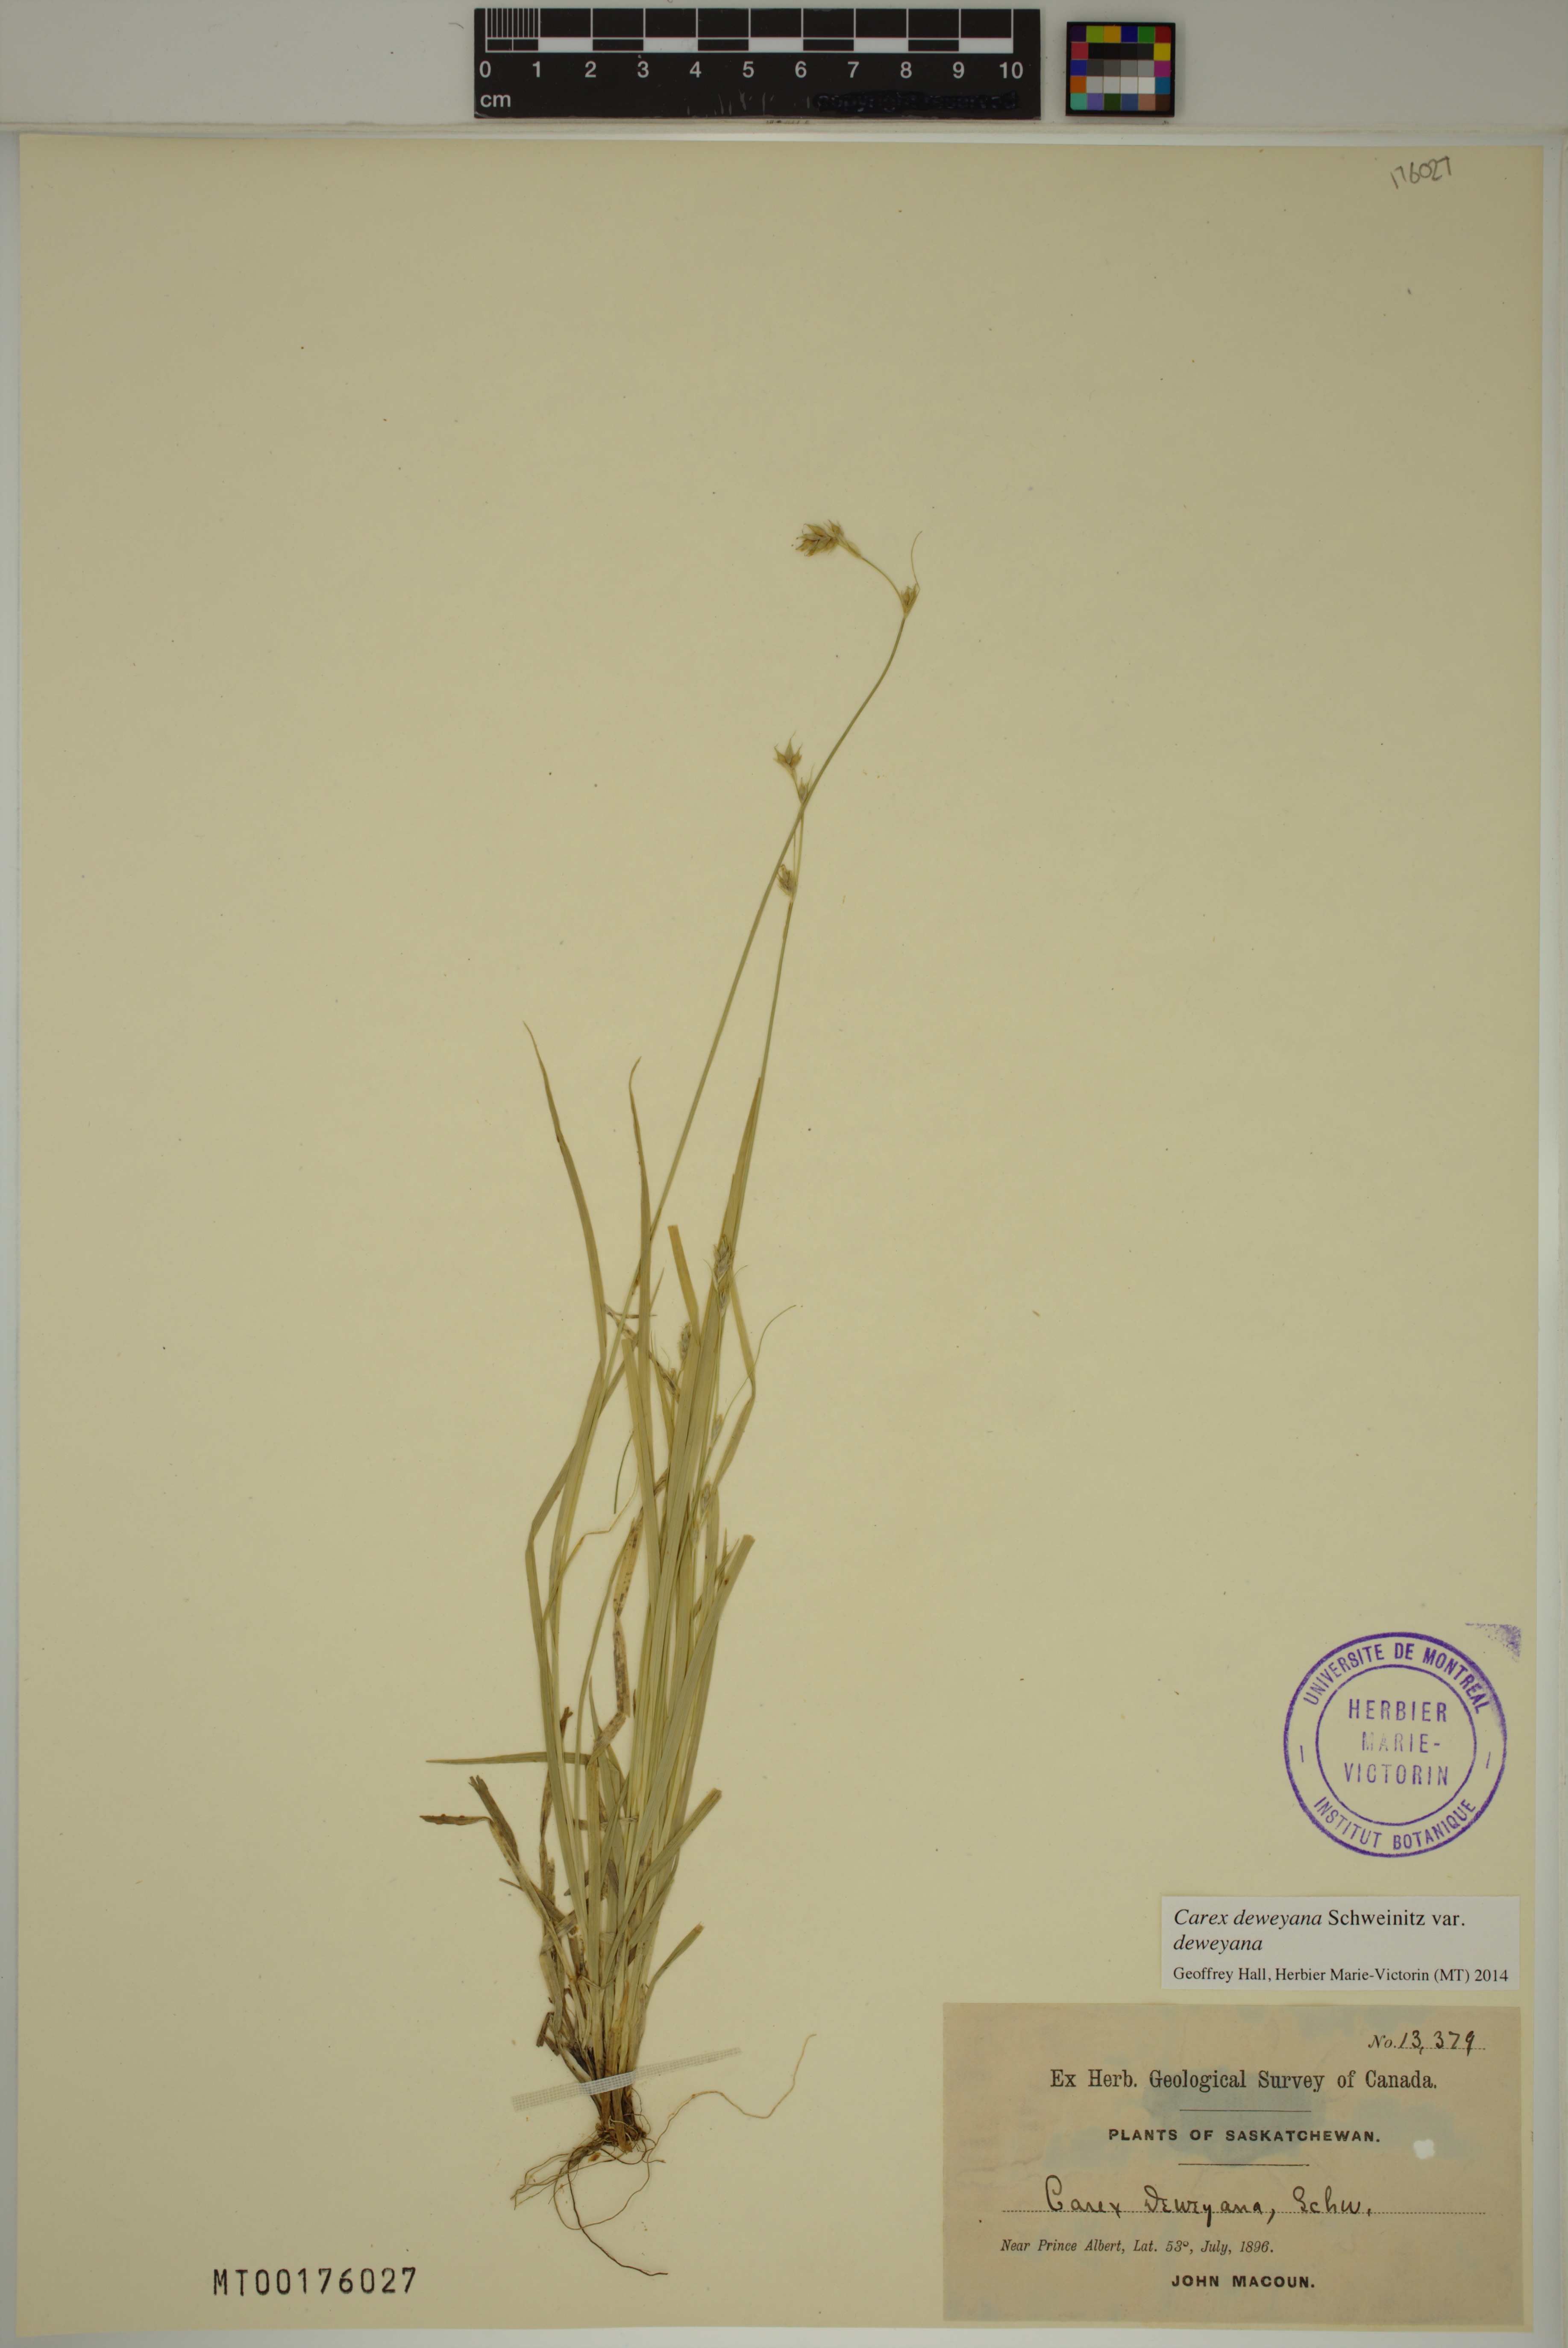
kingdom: Plantae
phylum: Tracheophyta
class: Liliopsida
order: Poales
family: Cyperaceae
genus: Carex
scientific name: Carex deweyana
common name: Dewey's sedge
